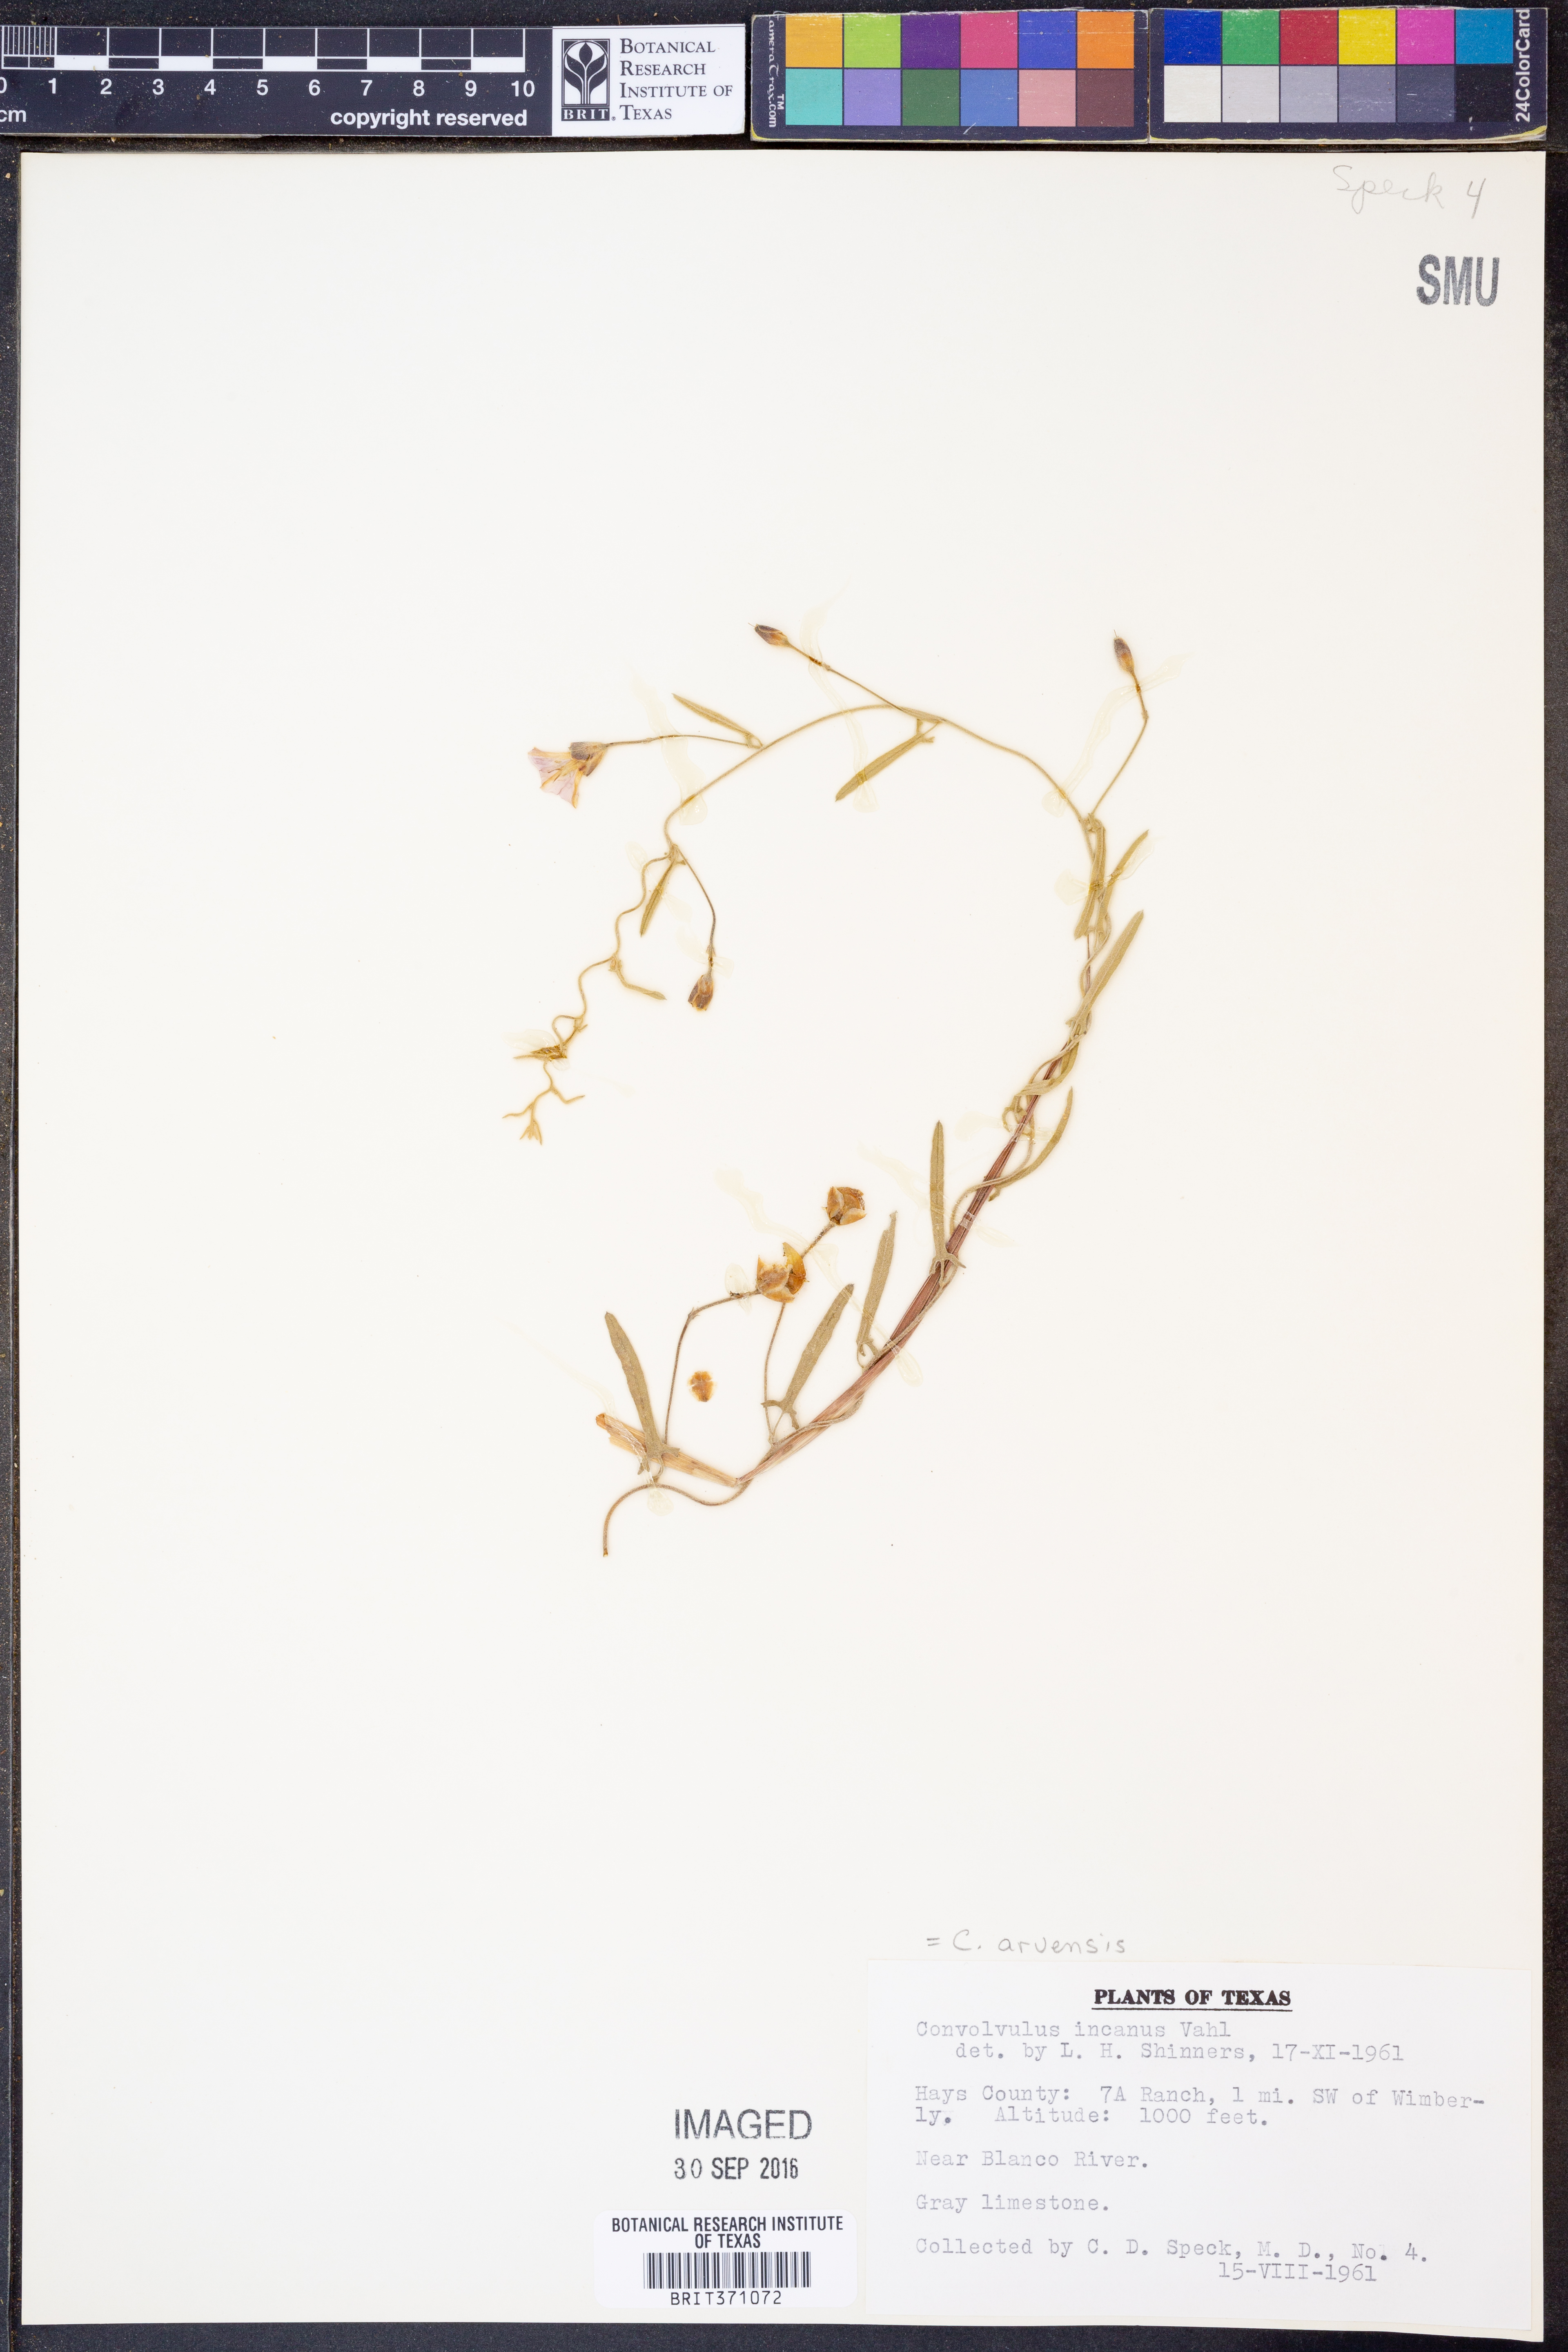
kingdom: Plantae
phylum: Tracheophyta
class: Magnoliopsida
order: Solanales
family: Convolvulaceae
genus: Convolvulus
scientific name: Convolvulus arvensis
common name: Field bindweed
